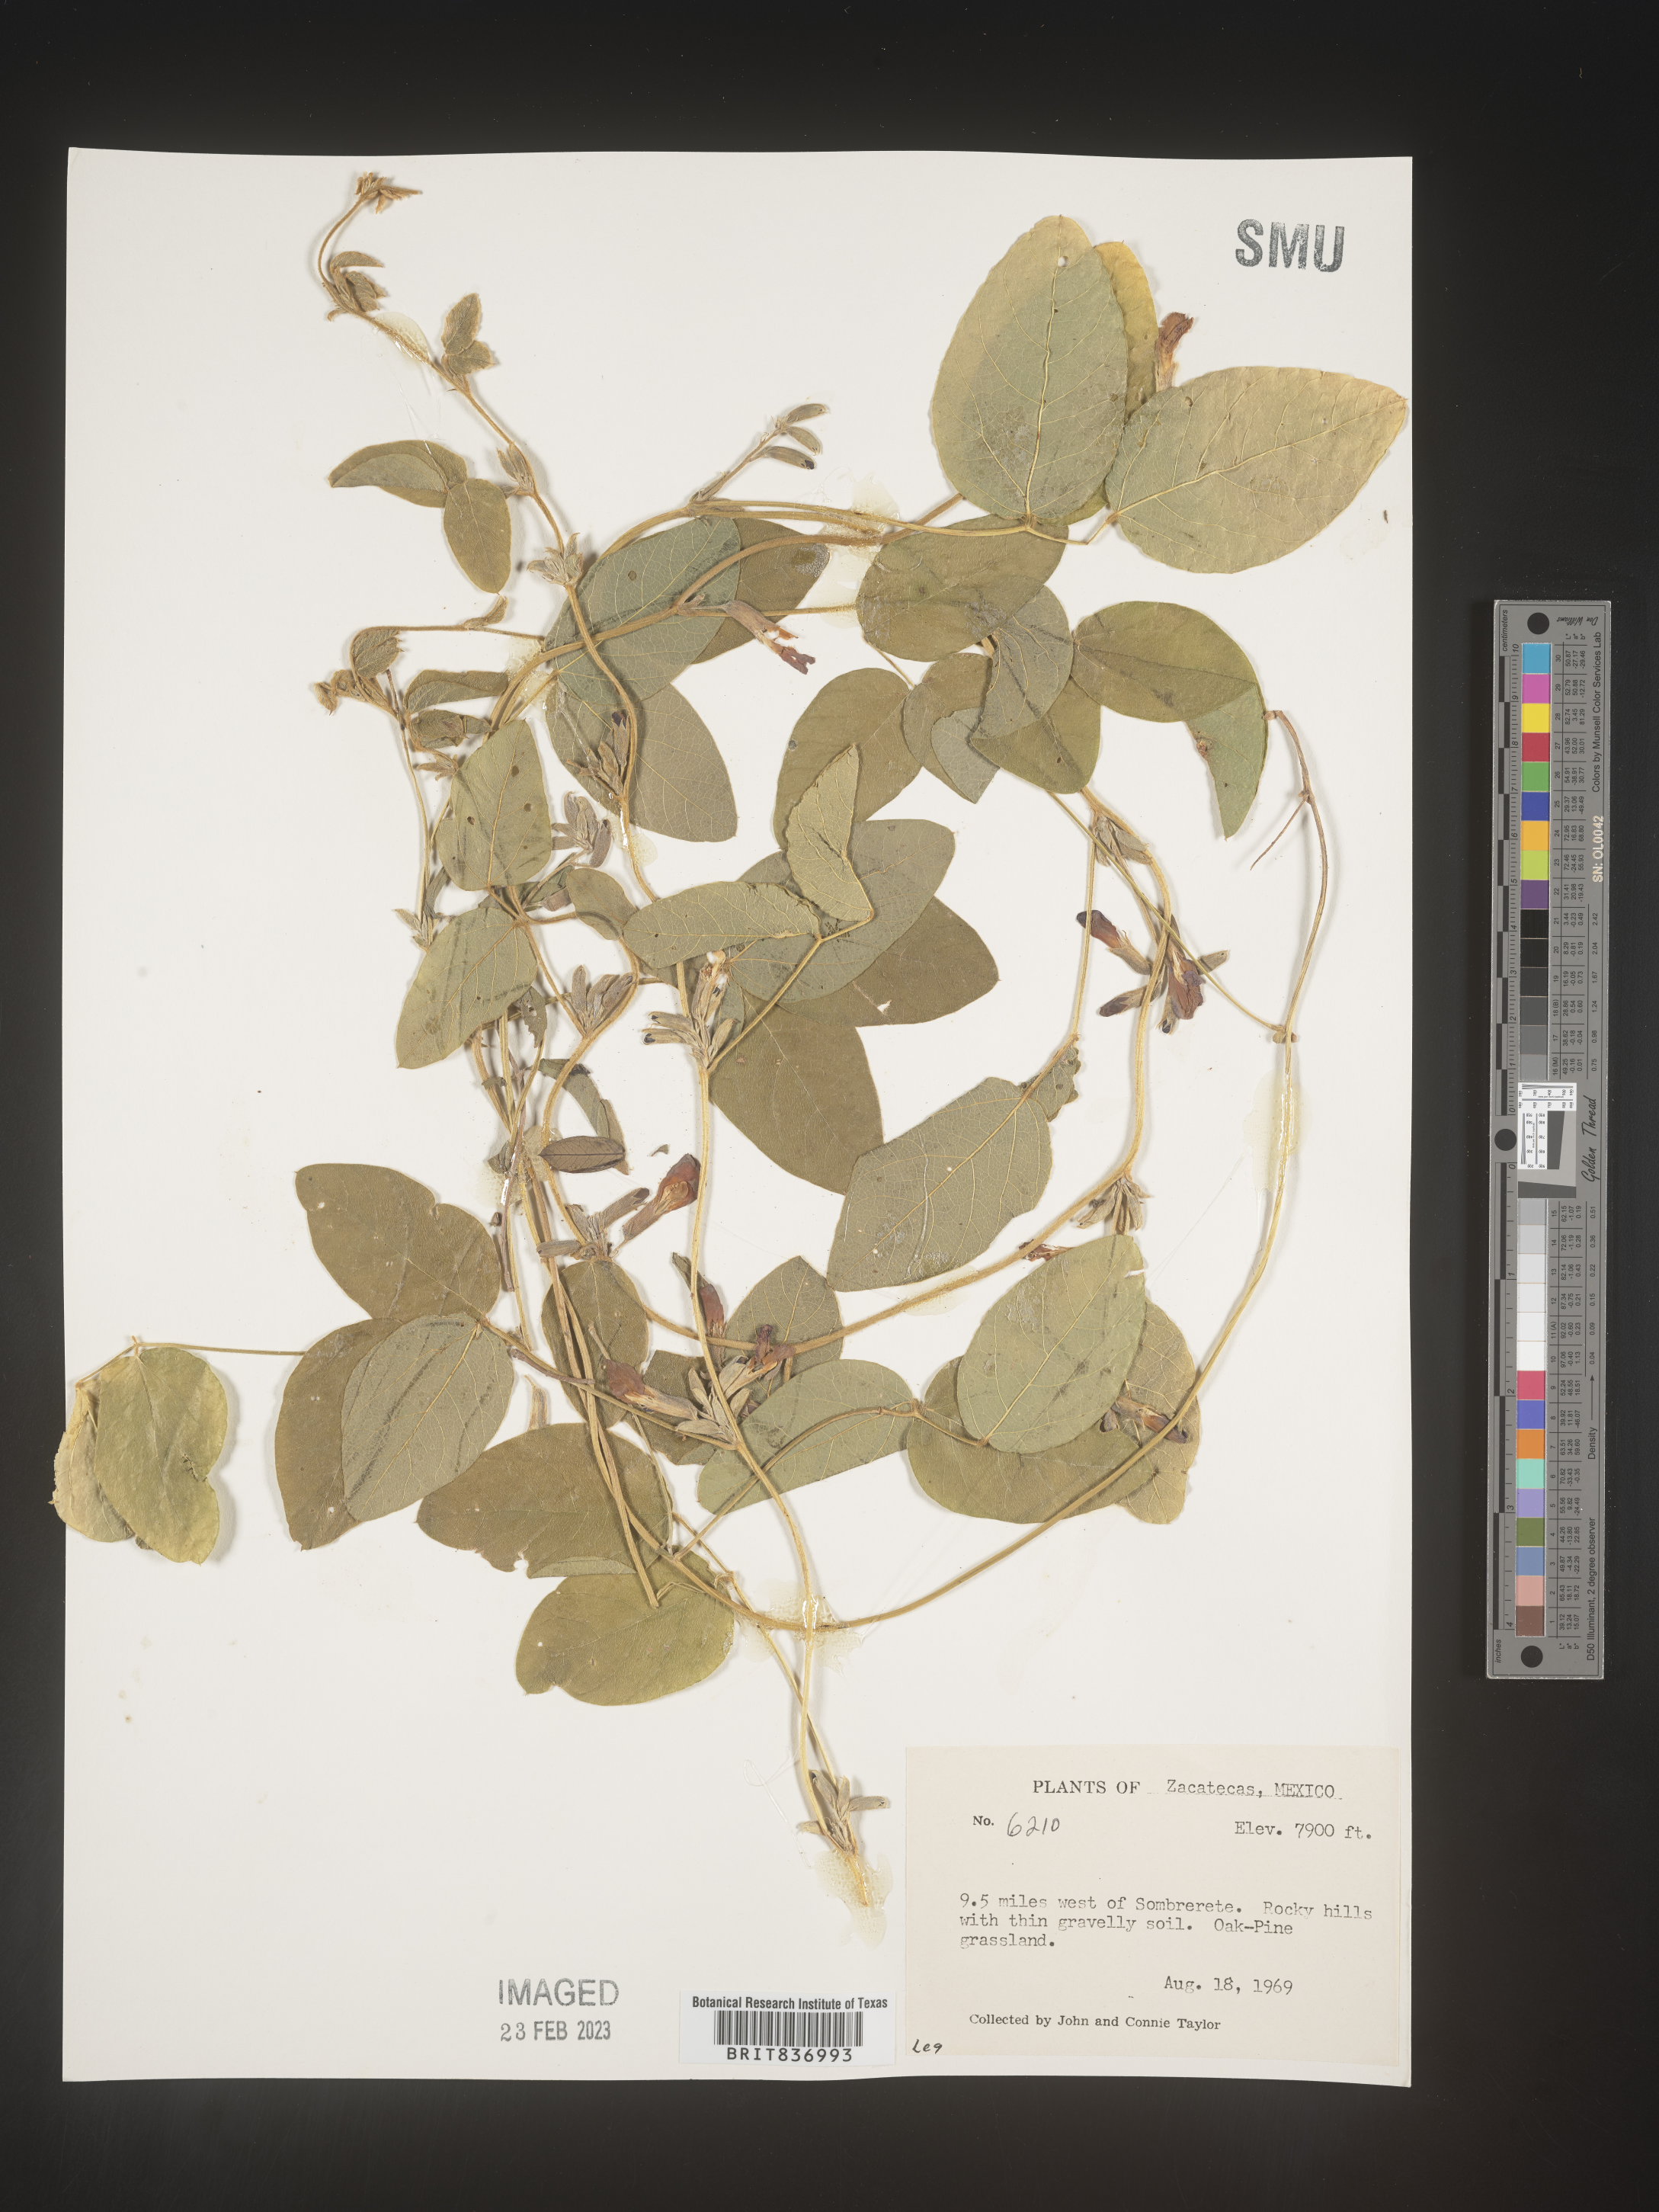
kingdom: Plantae
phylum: Tracheophyta
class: Magnoliopsida
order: Fabales
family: Fabaceae
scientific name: Fabaceae
